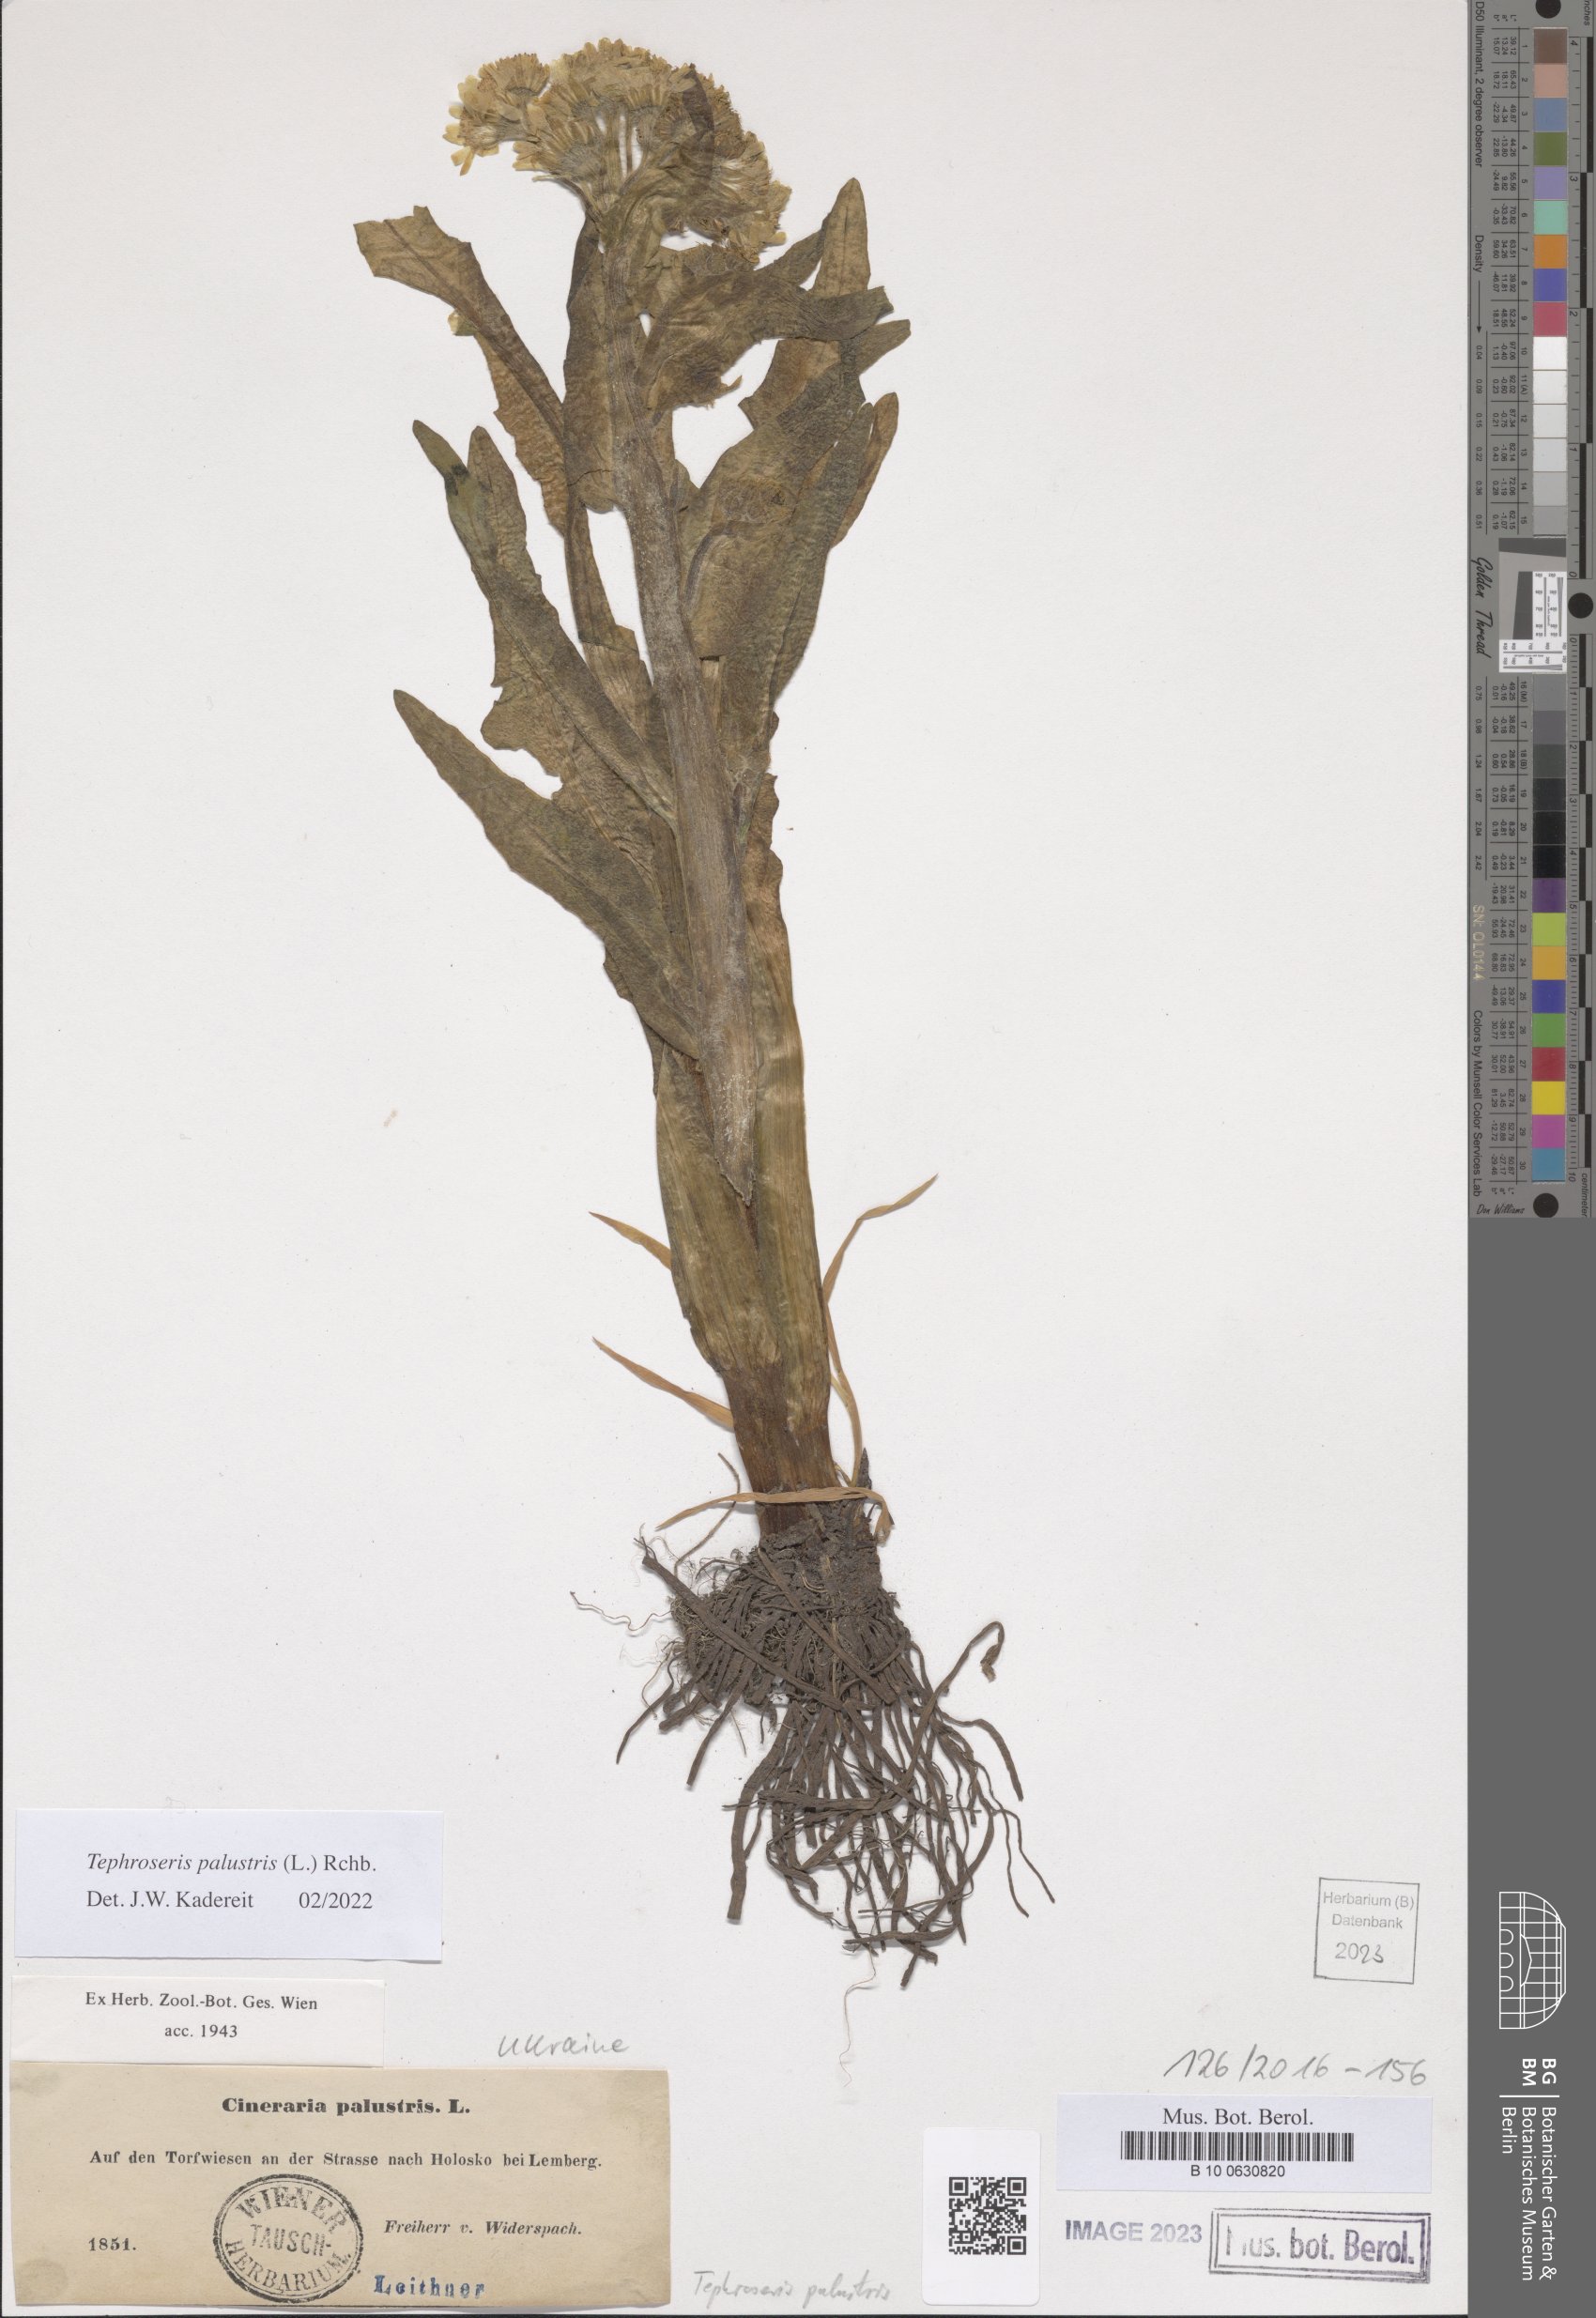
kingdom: Plantae
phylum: Tracheophyta
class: Magnoliopsida
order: Asterales
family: Asteraceae
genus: Tephroseris
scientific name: Tephroseris palustris
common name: Marsh fleawort
